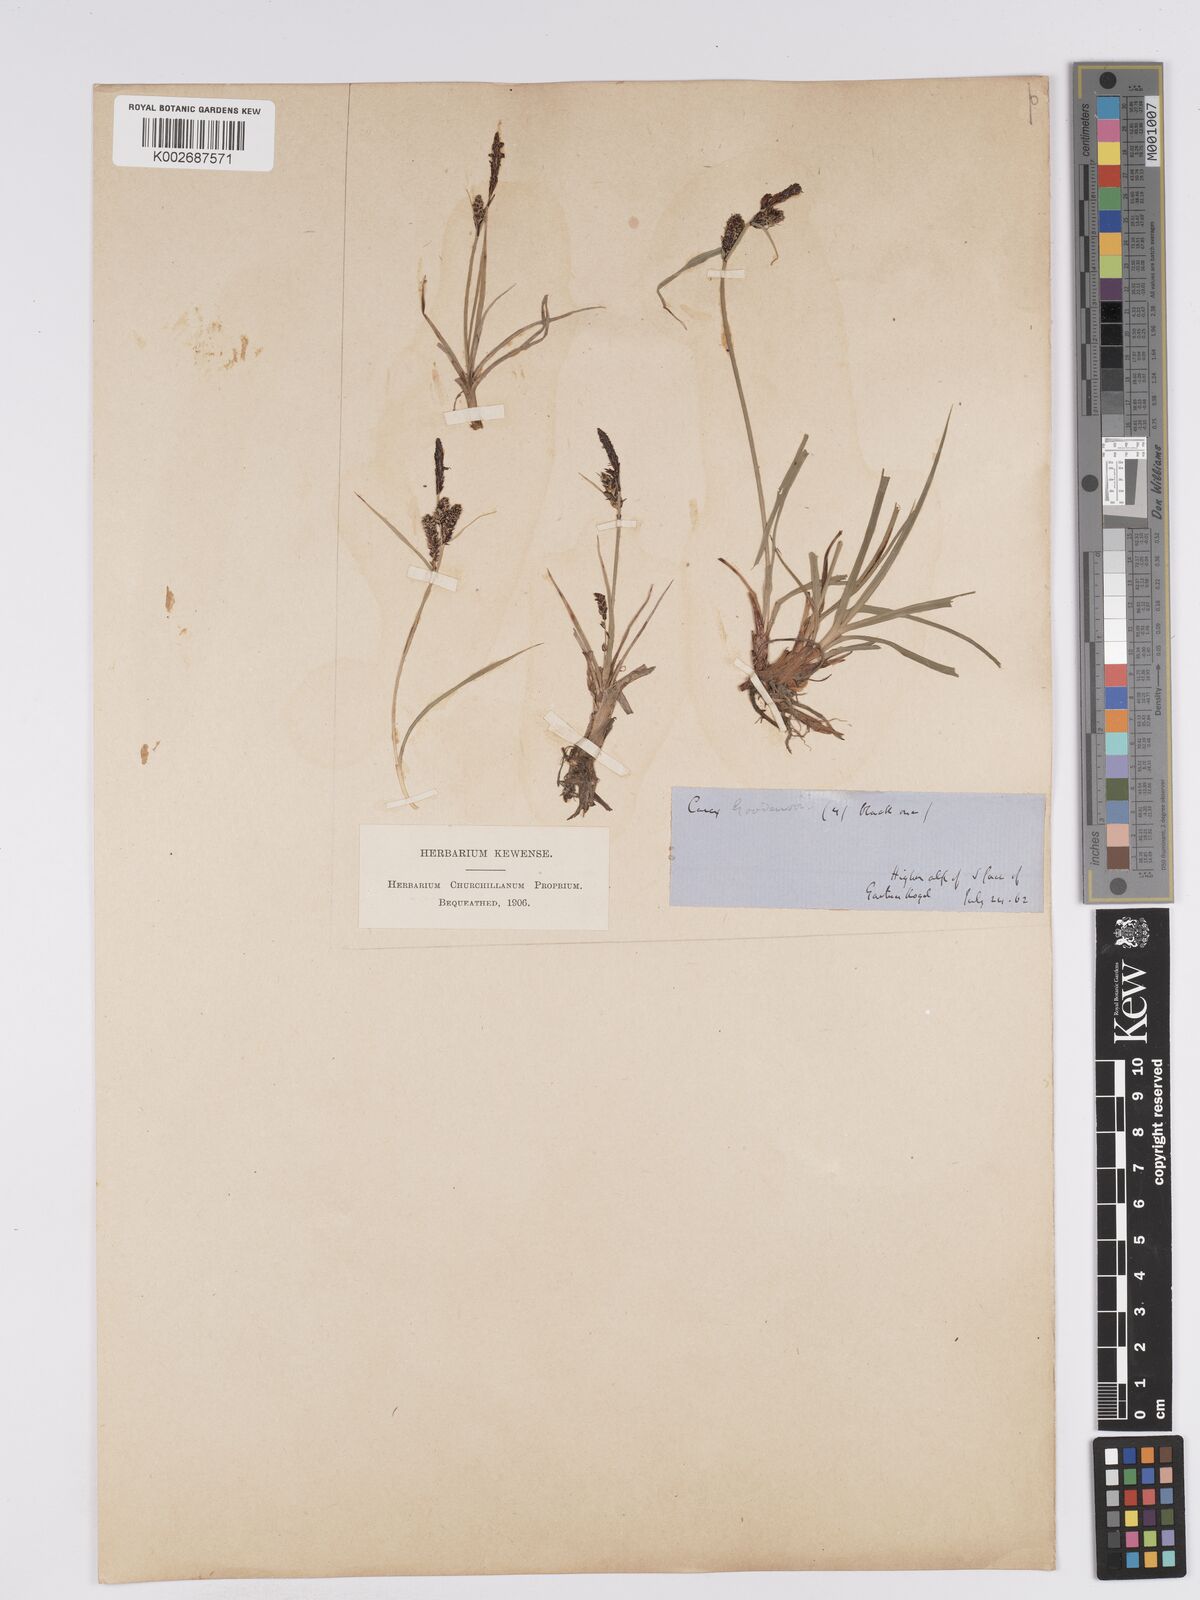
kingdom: Plantae
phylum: Tracheophyta
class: Liliopsida
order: Poales
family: Cyperaceae
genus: Carex
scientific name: Carex nigra
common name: Common sedge
